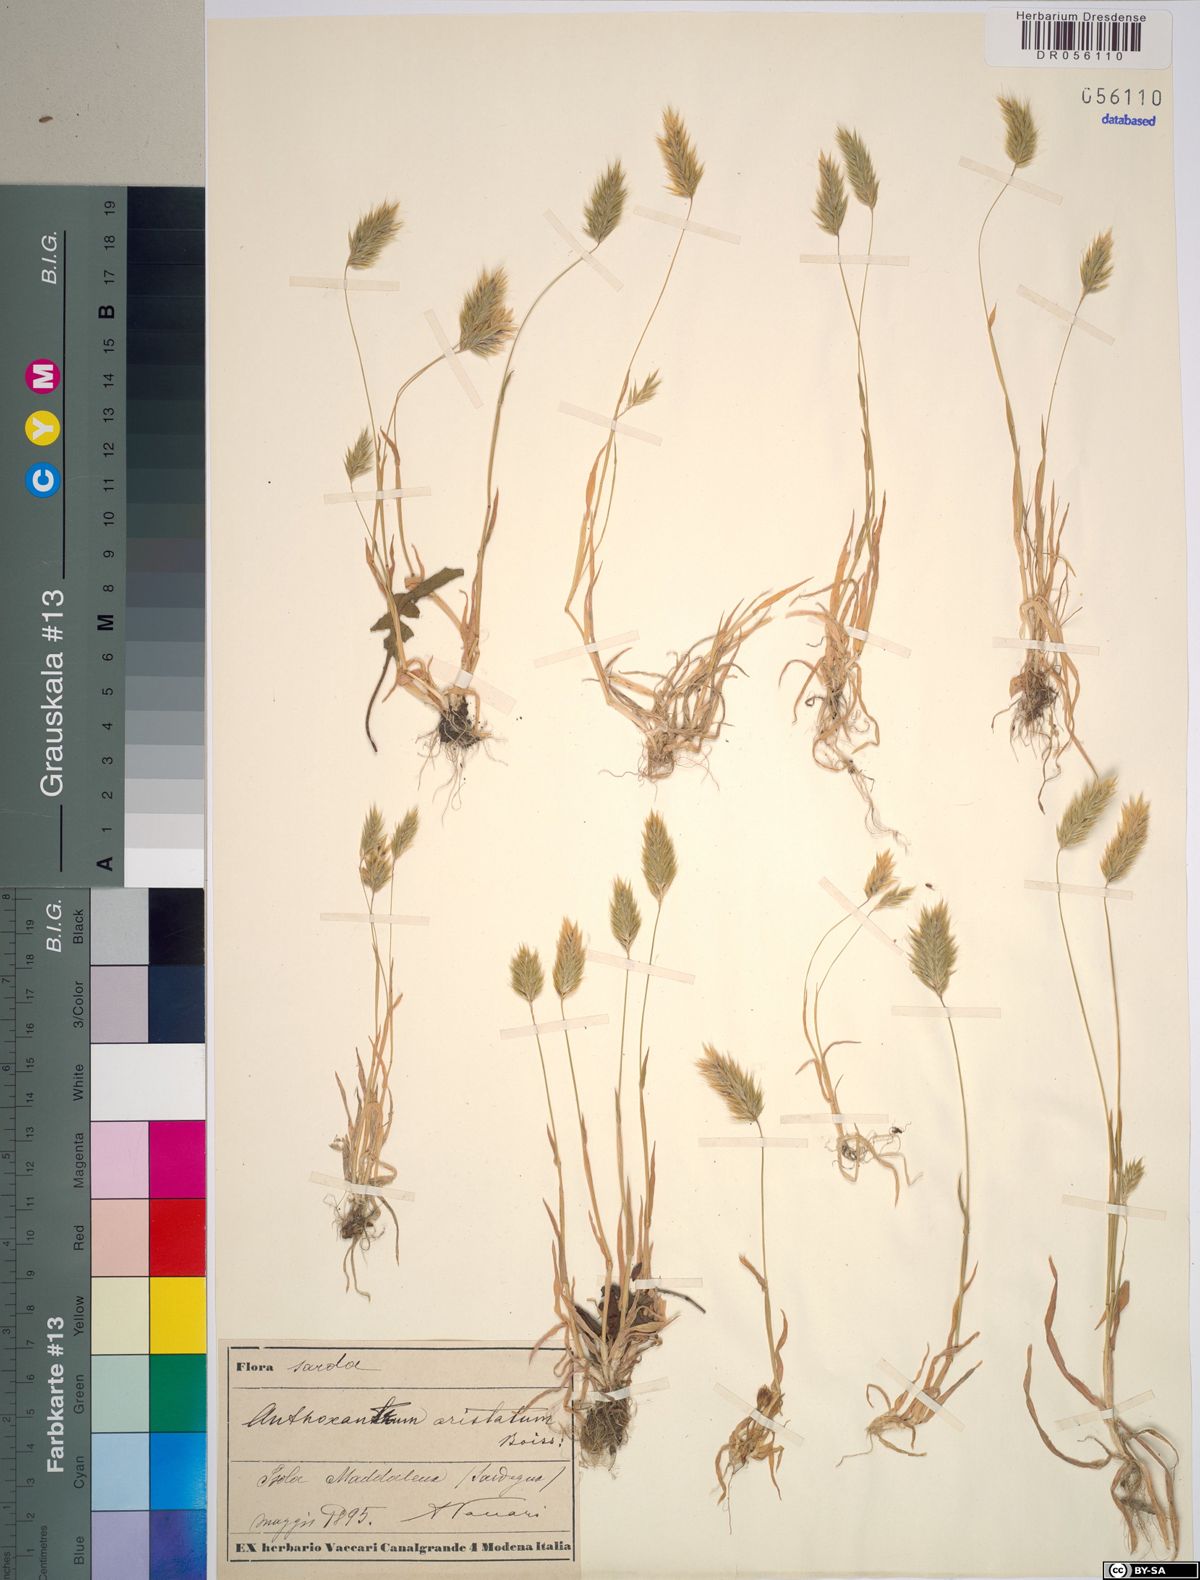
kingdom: Plantae
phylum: Tracheophyta
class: Liliopsida
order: Poales
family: Poaceae
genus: Anthoxanthum
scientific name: Anthoxanthum aristatum
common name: Annual vernal-grass
